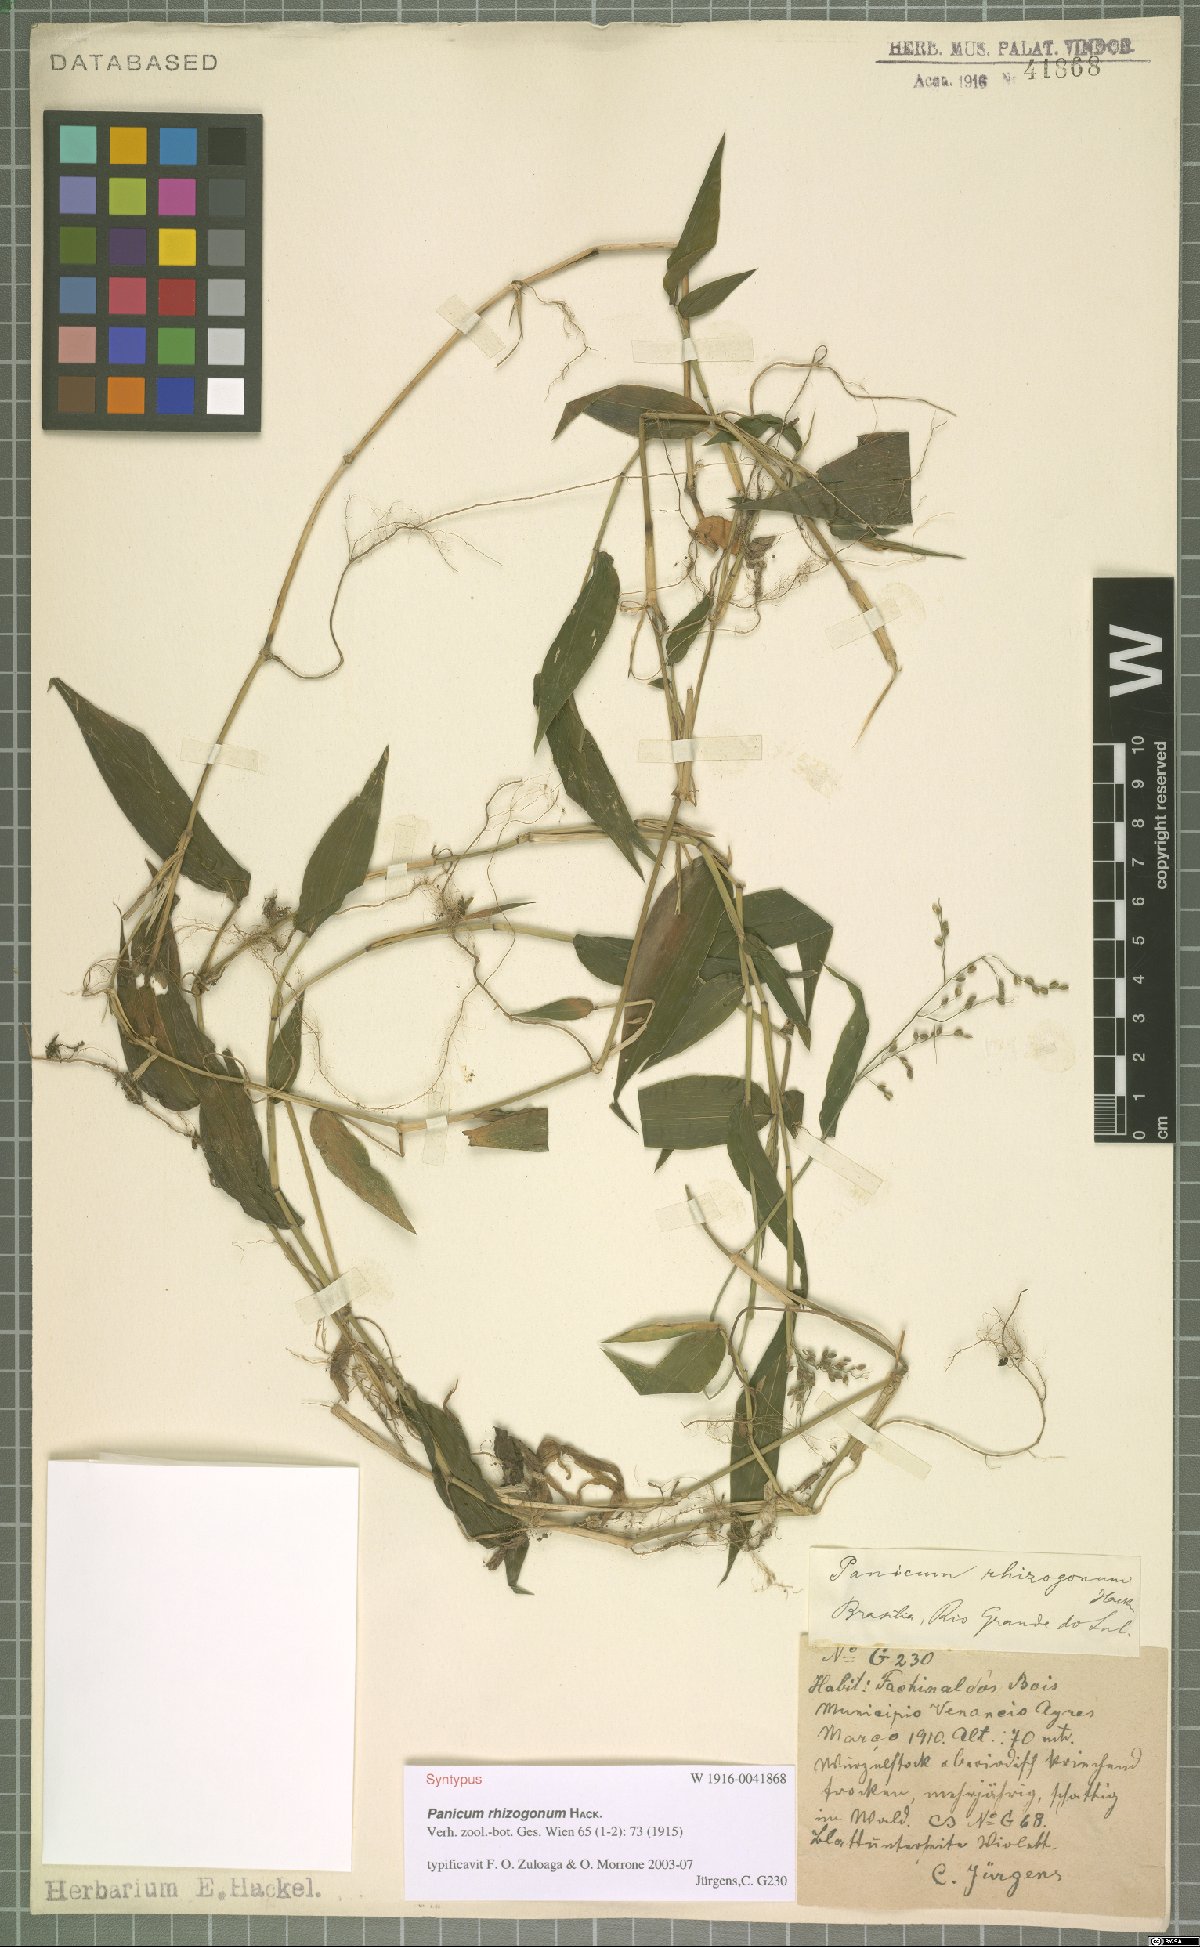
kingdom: Plantae
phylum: Tracheophyta
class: Liliopsida
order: Poales
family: Poaceae
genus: Parodiophyllochloa
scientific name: Parodiophyllochloa rhizogona
